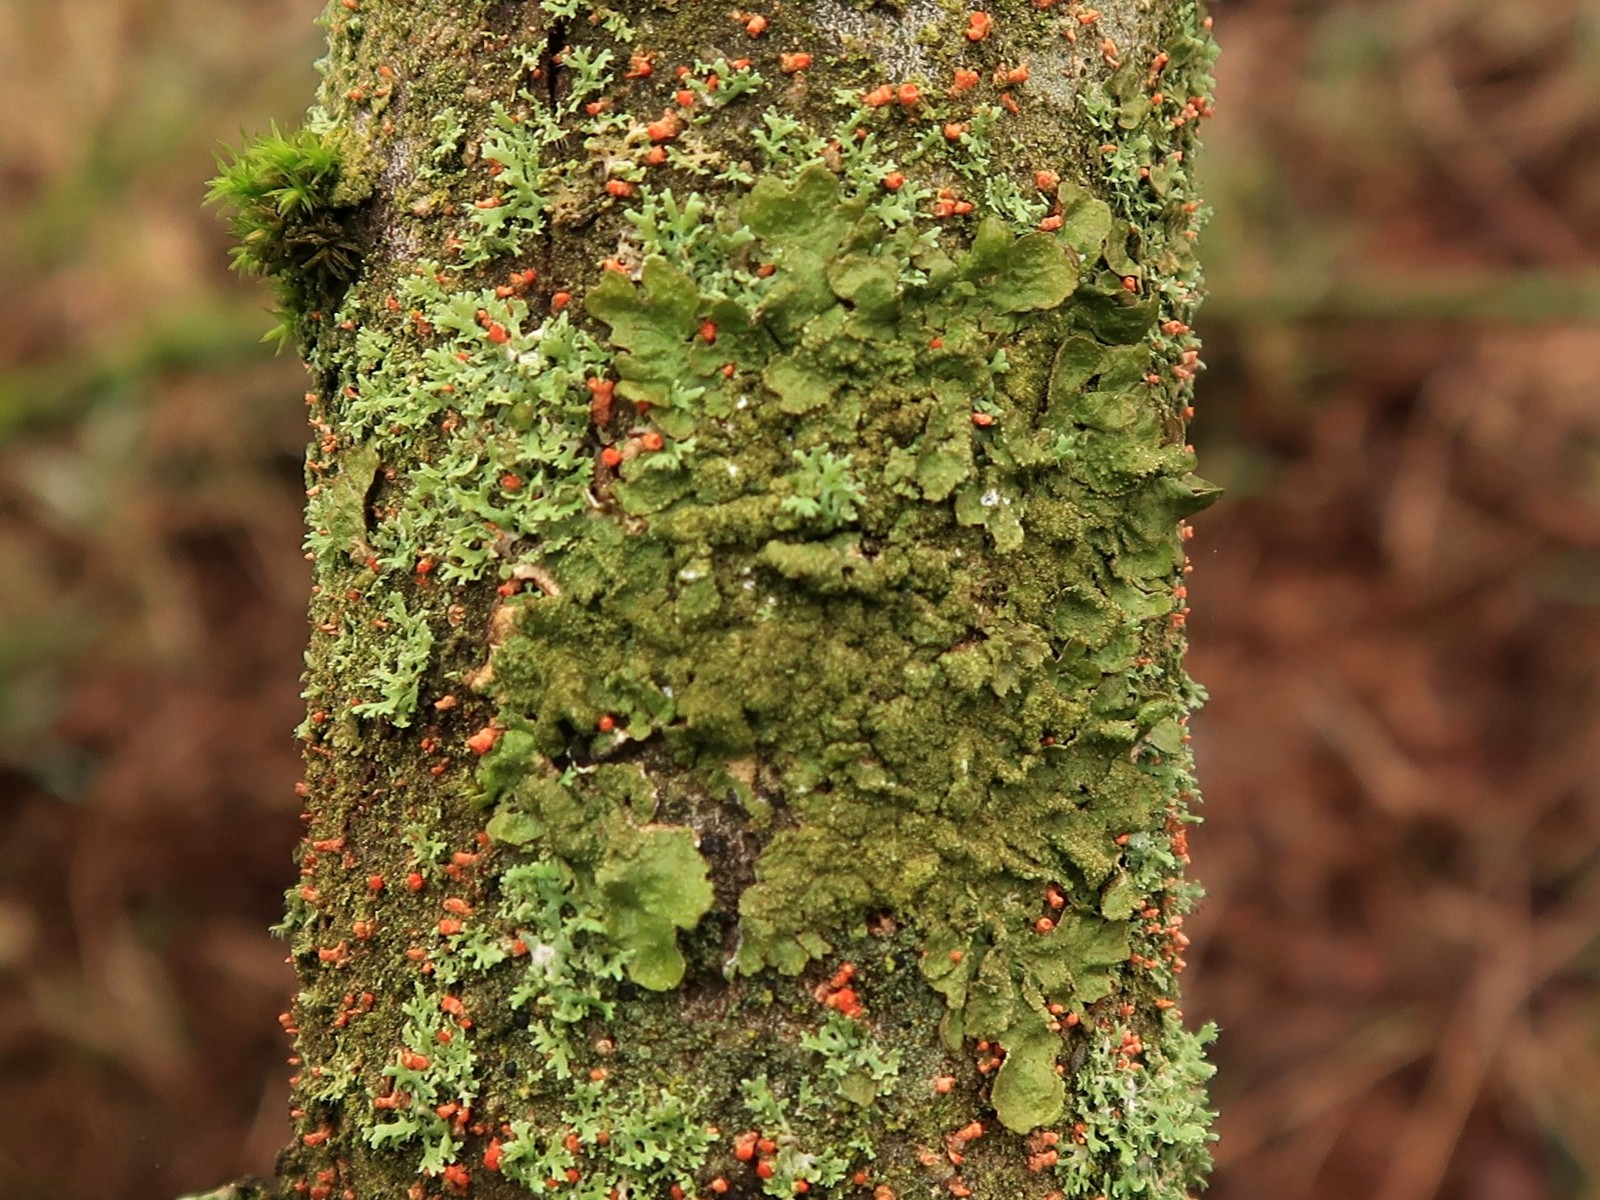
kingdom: Fungi
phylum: Ascomycota
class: Lecanoromycetes
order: Lecanorales
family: Parmeliaceae
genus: Melanelixia
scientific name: Melanelixia glabratula
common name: glinsende skållav
